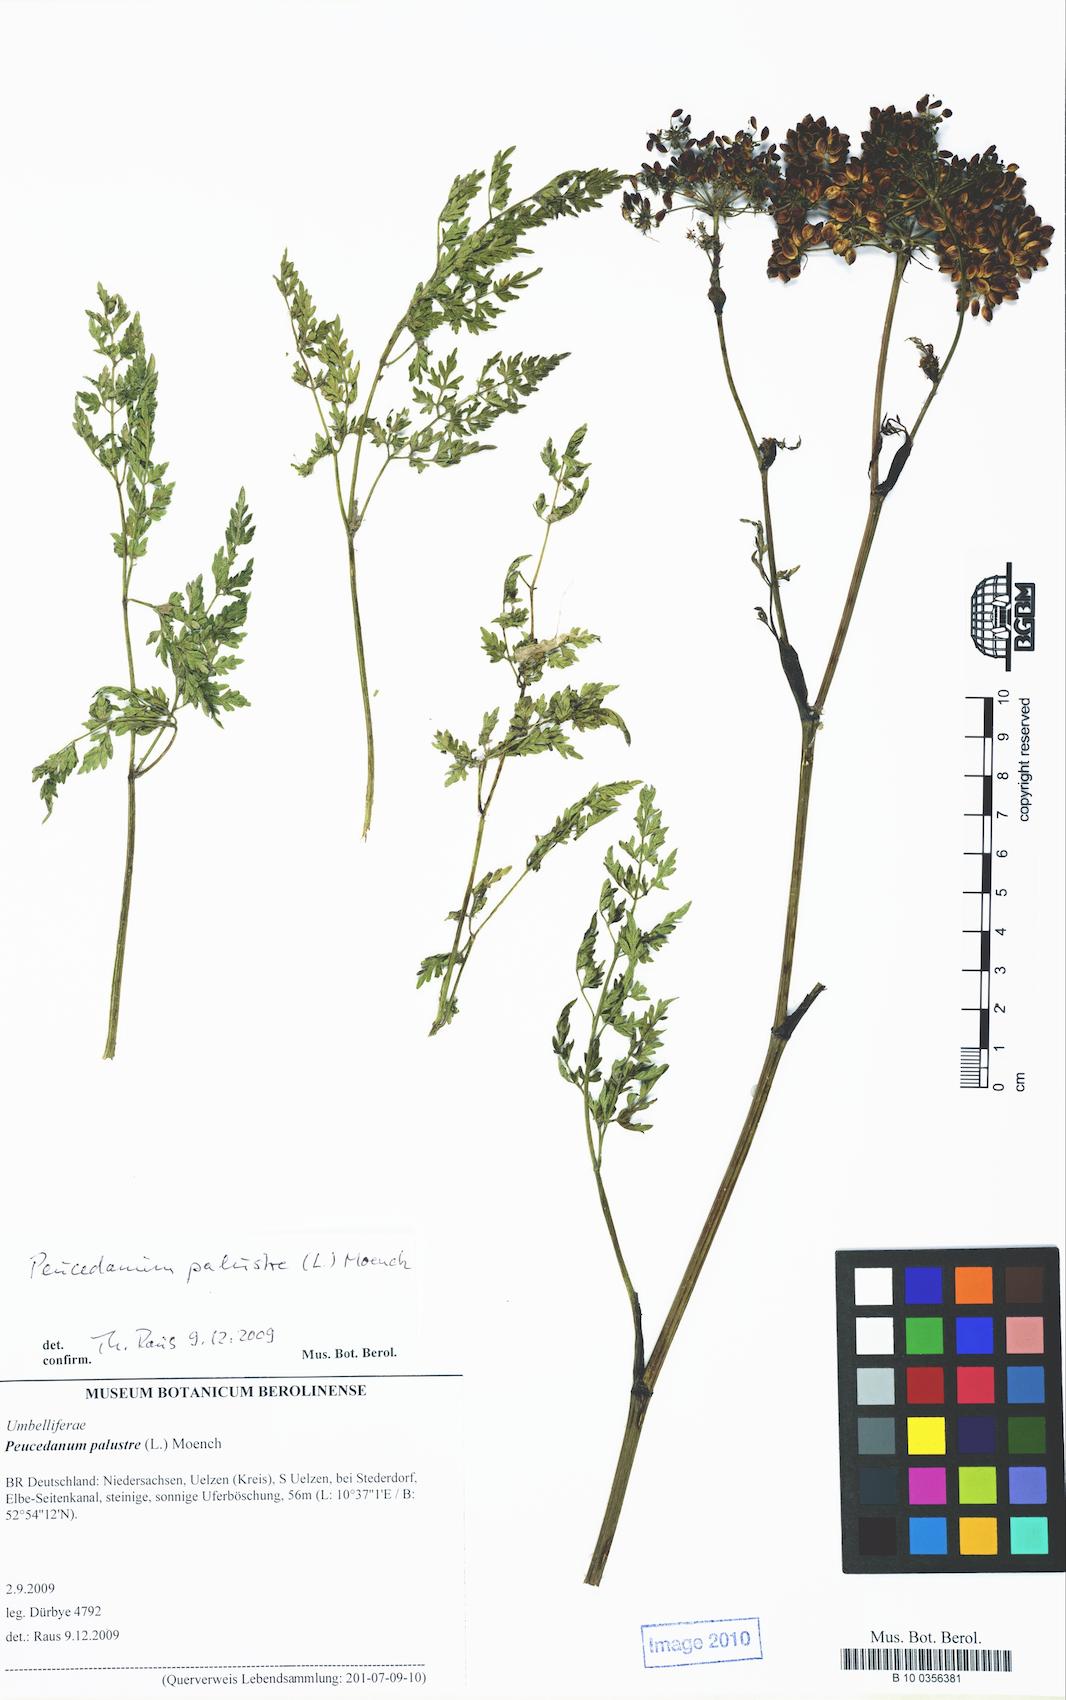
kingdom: Plantae
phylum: Tracheophyta
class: Magnoliopsida
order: Apiales
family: Apiaceae
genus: Thysselinum
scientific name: Thysselinum palustre
